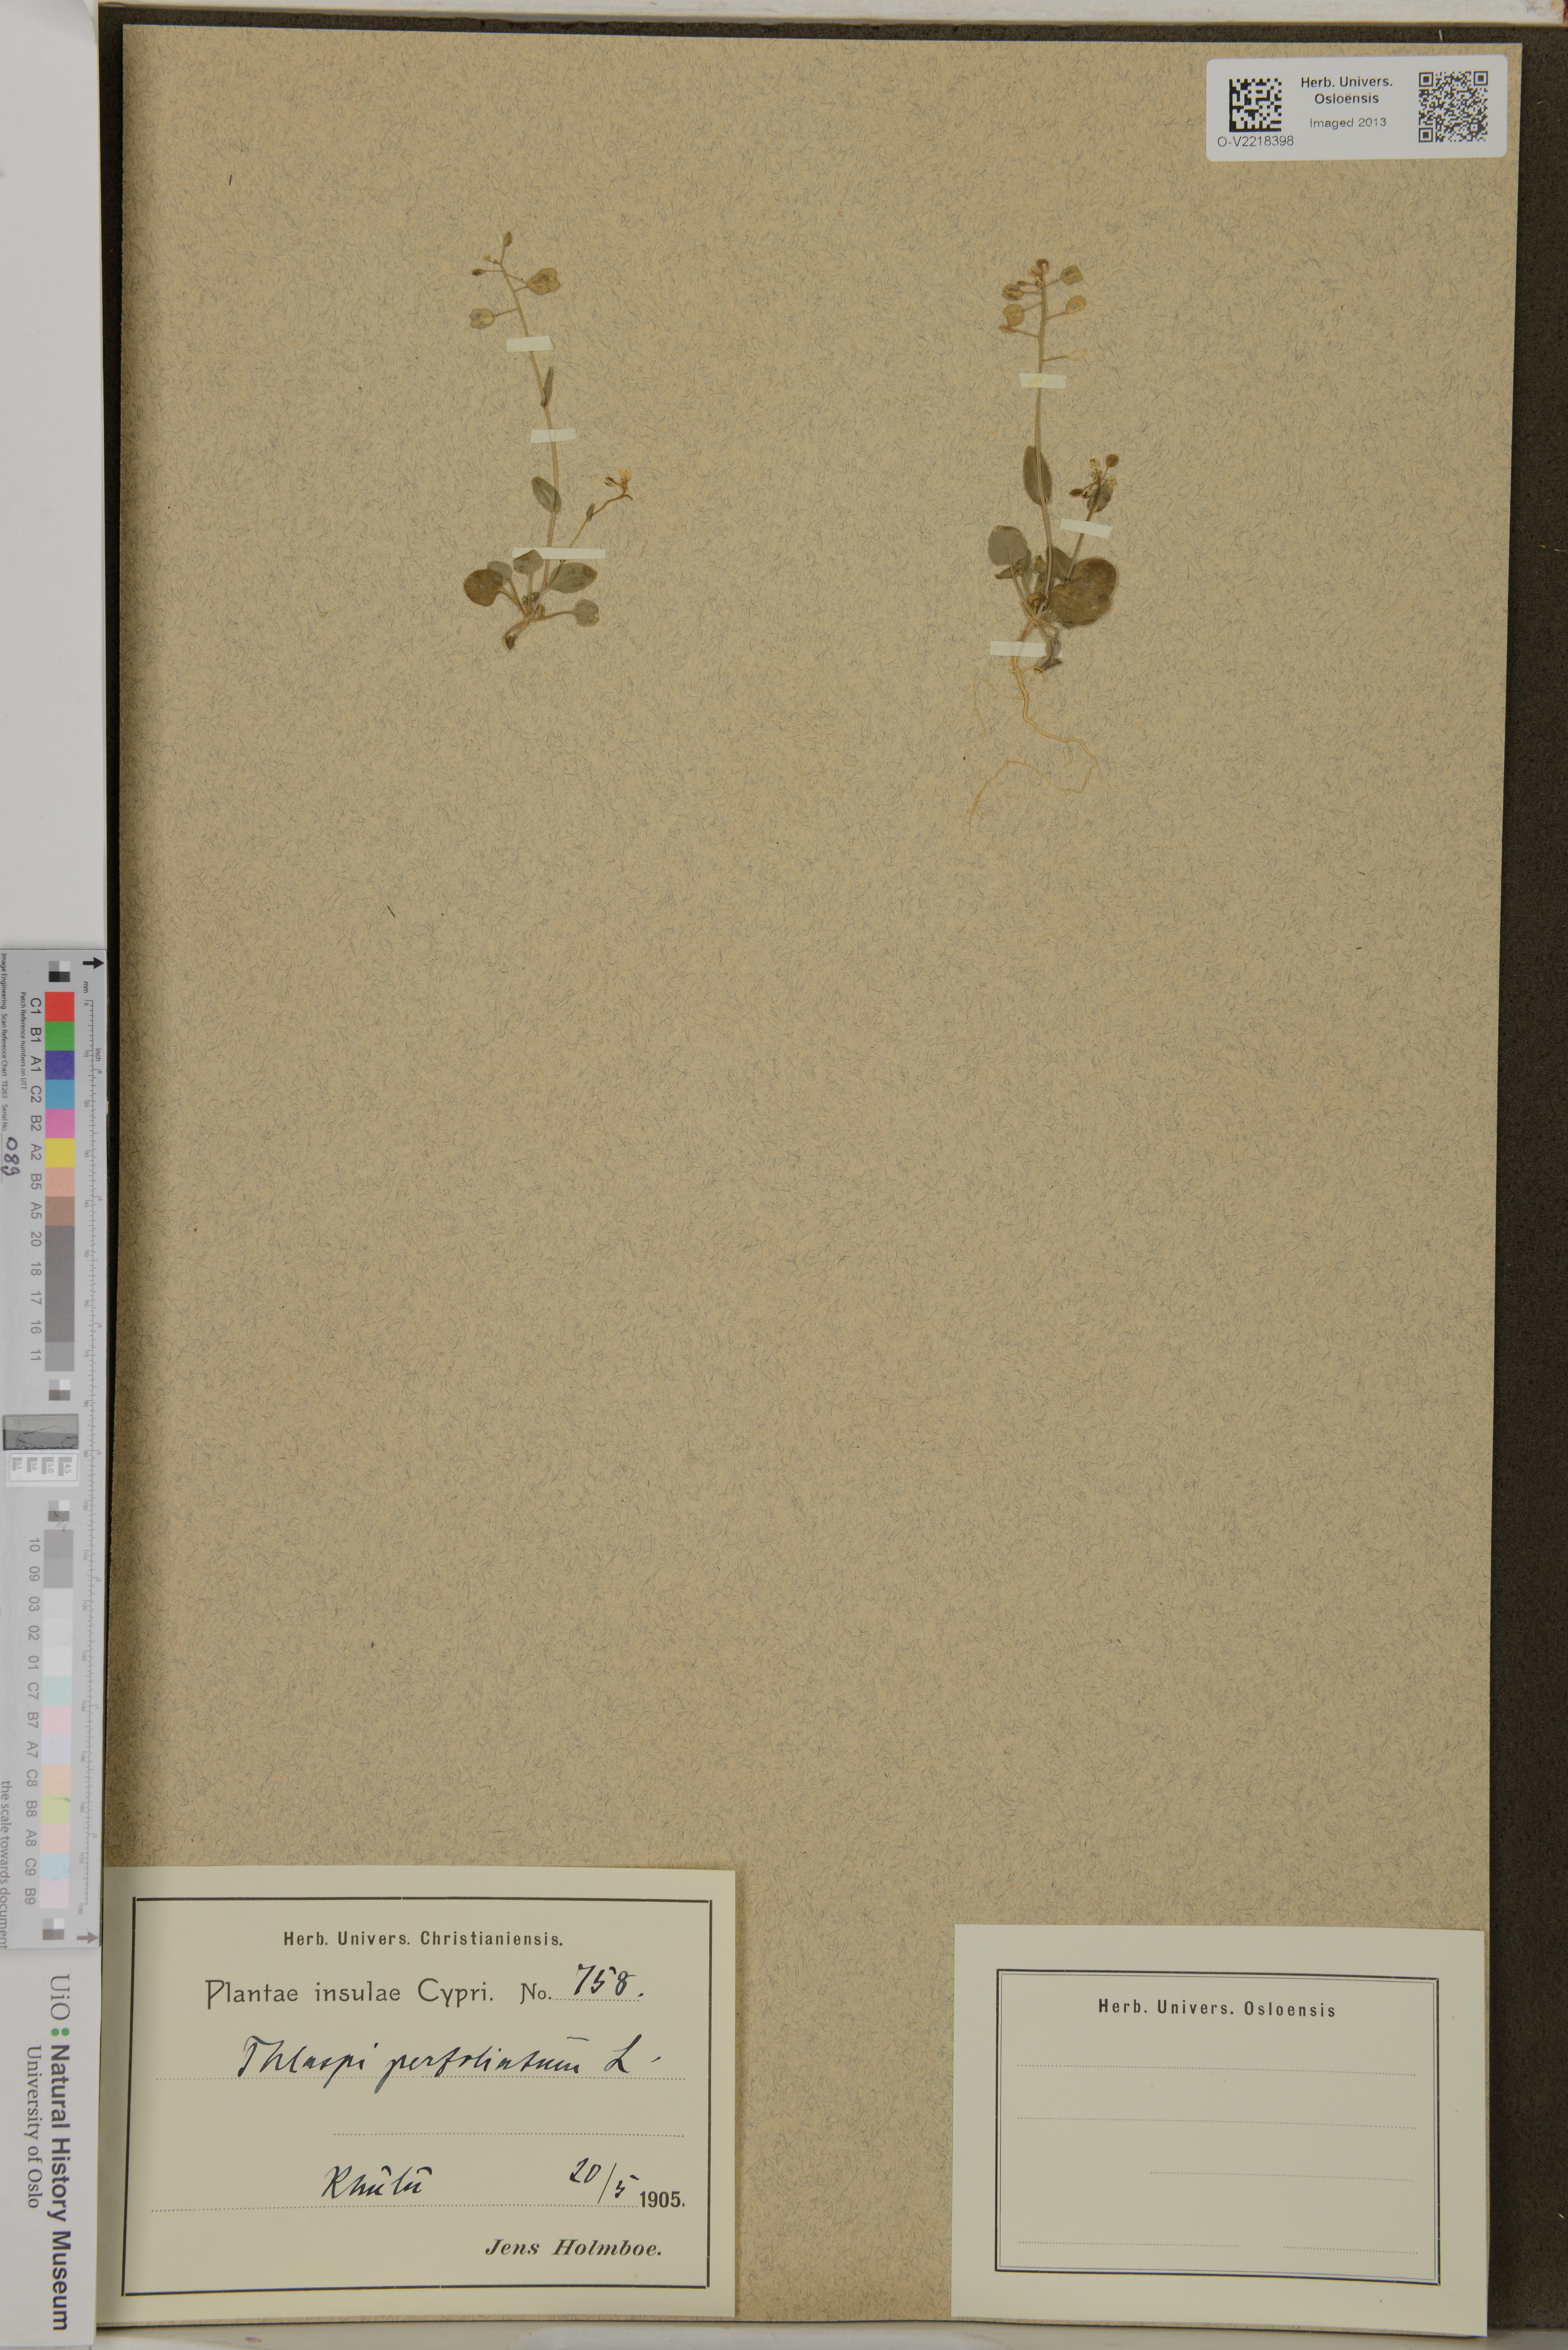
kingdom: Plantae
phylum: Tracheophyta
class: Magnoliopsida
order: Brassicales
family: Brassicaceae
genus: Noccaea
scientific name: Noccaea perfoliata
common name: Perfoliate pennycress
